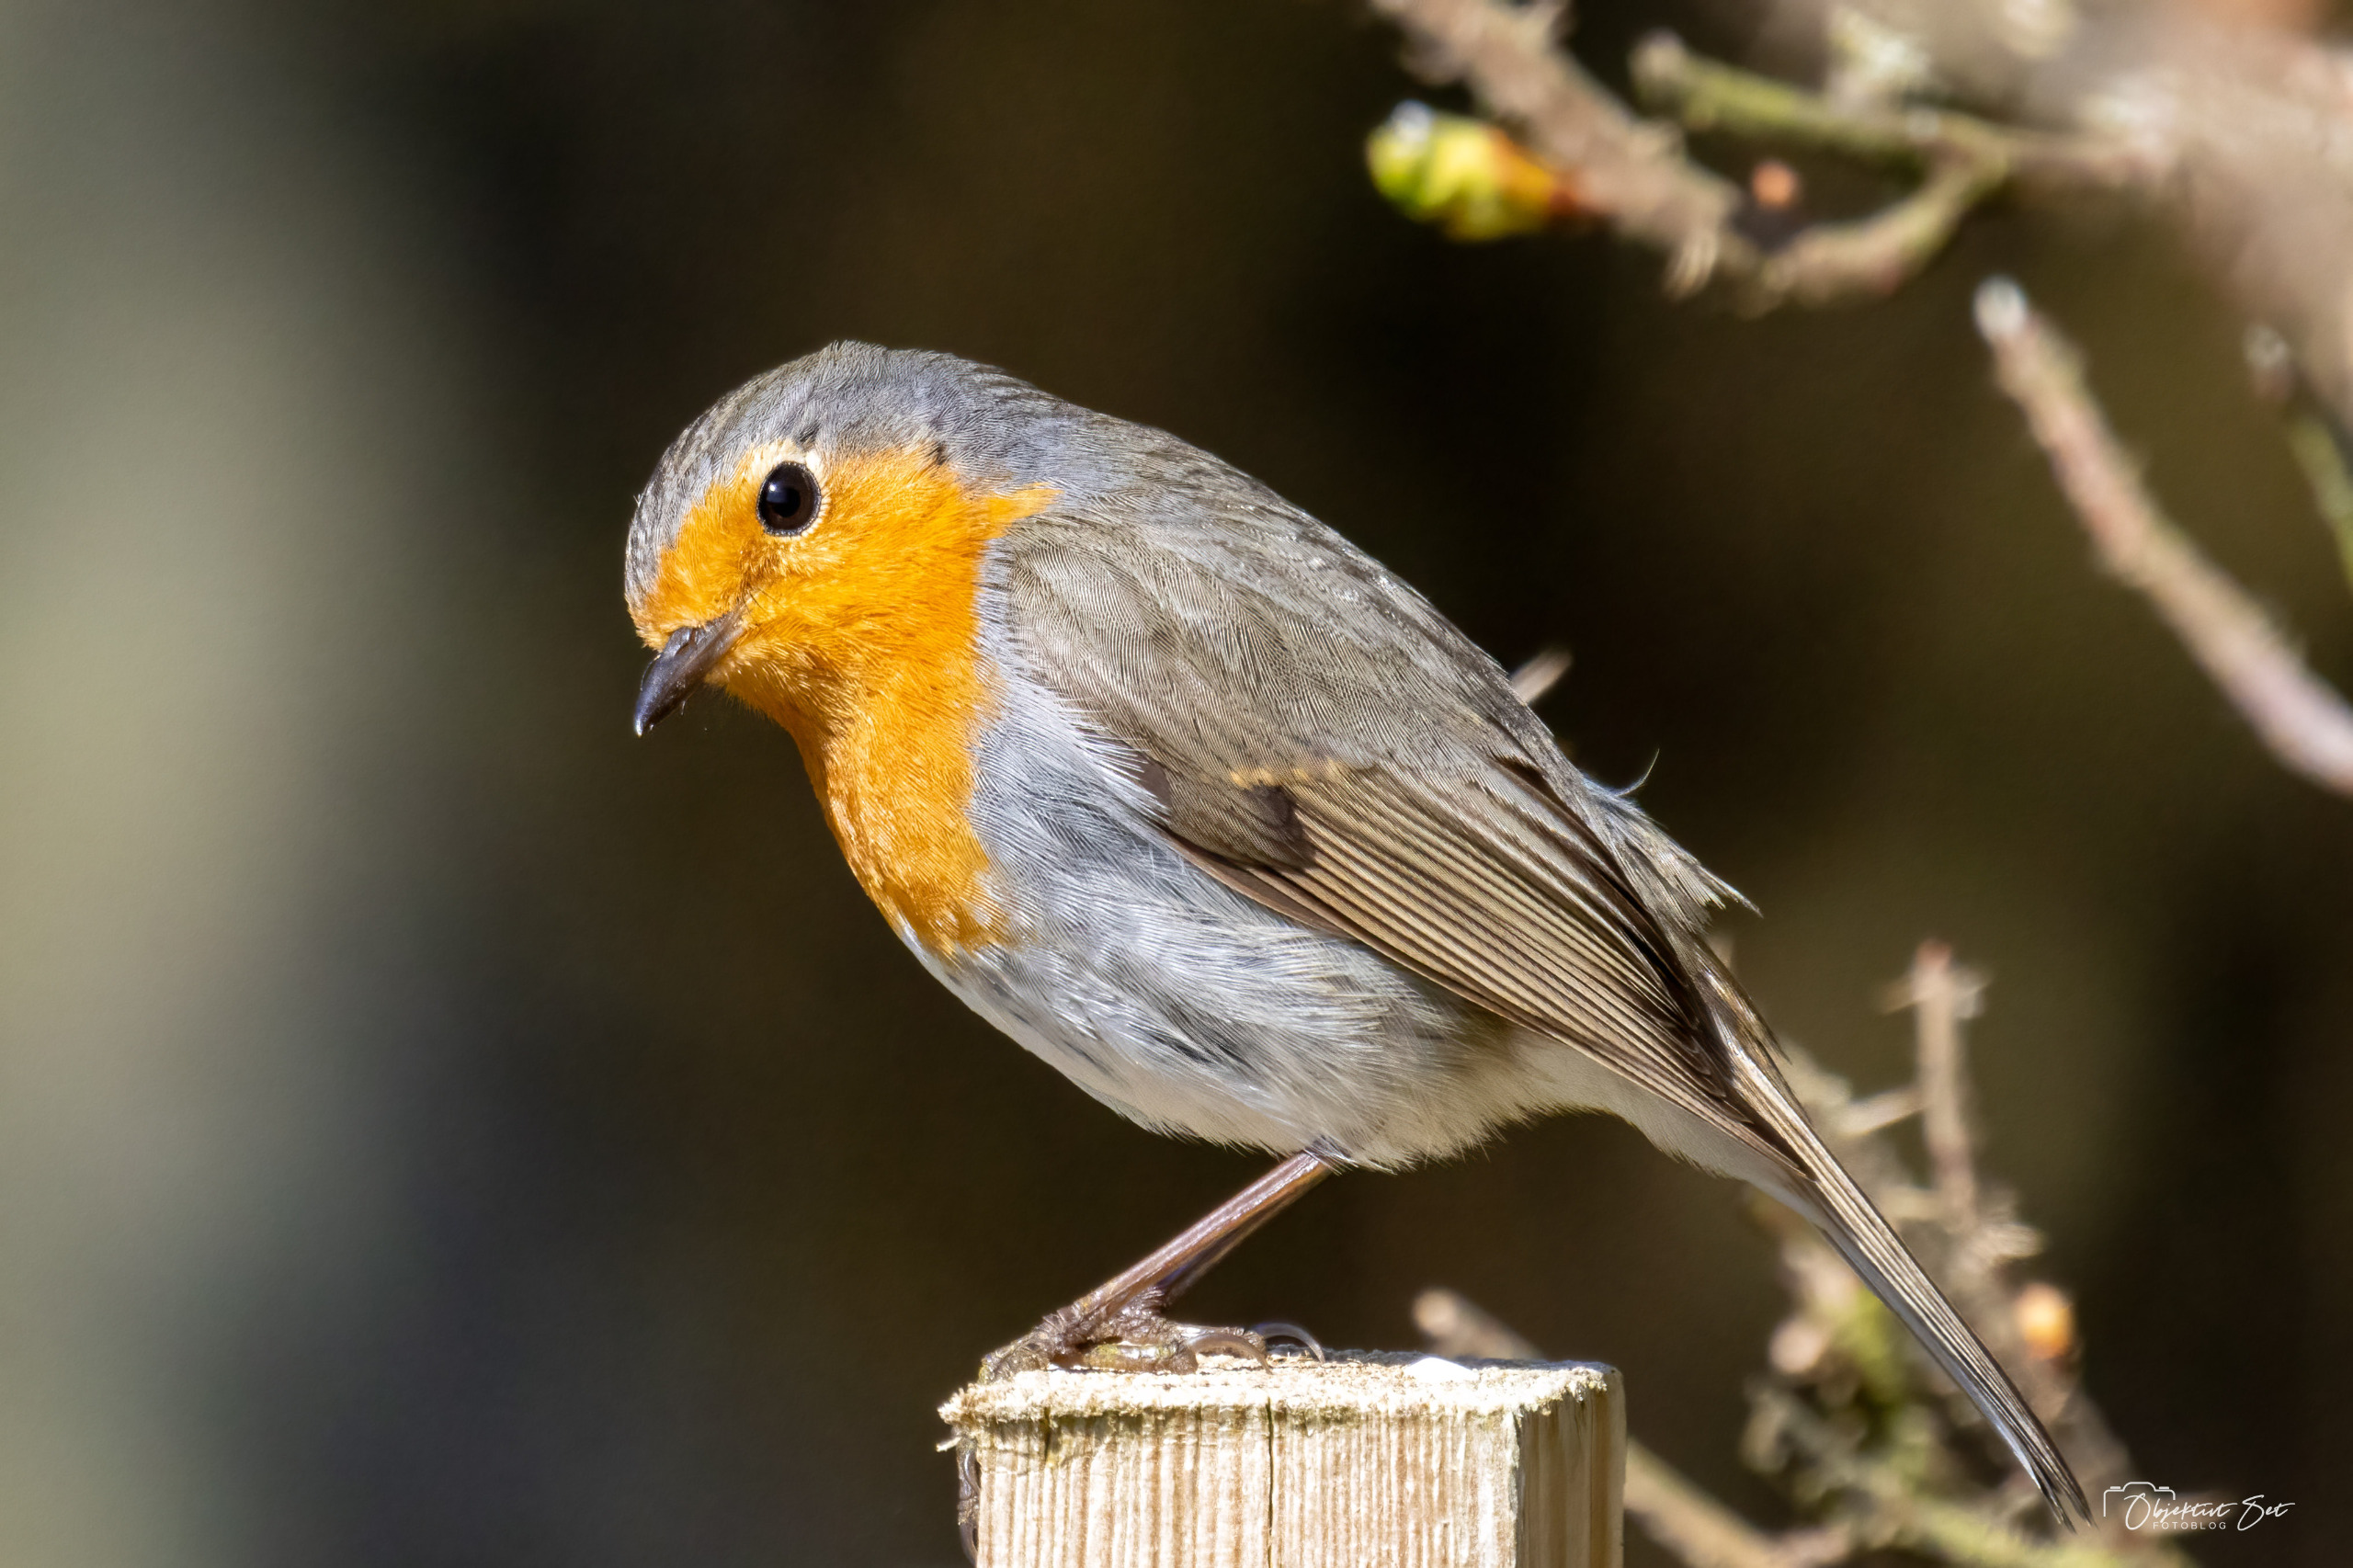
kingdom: Animalia
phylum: Chordata
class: Aves
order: Passeriformes
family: Muscicapidae
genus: Erithacus
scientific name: Erithacus rubecula
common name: Rødhals/rødkælk
